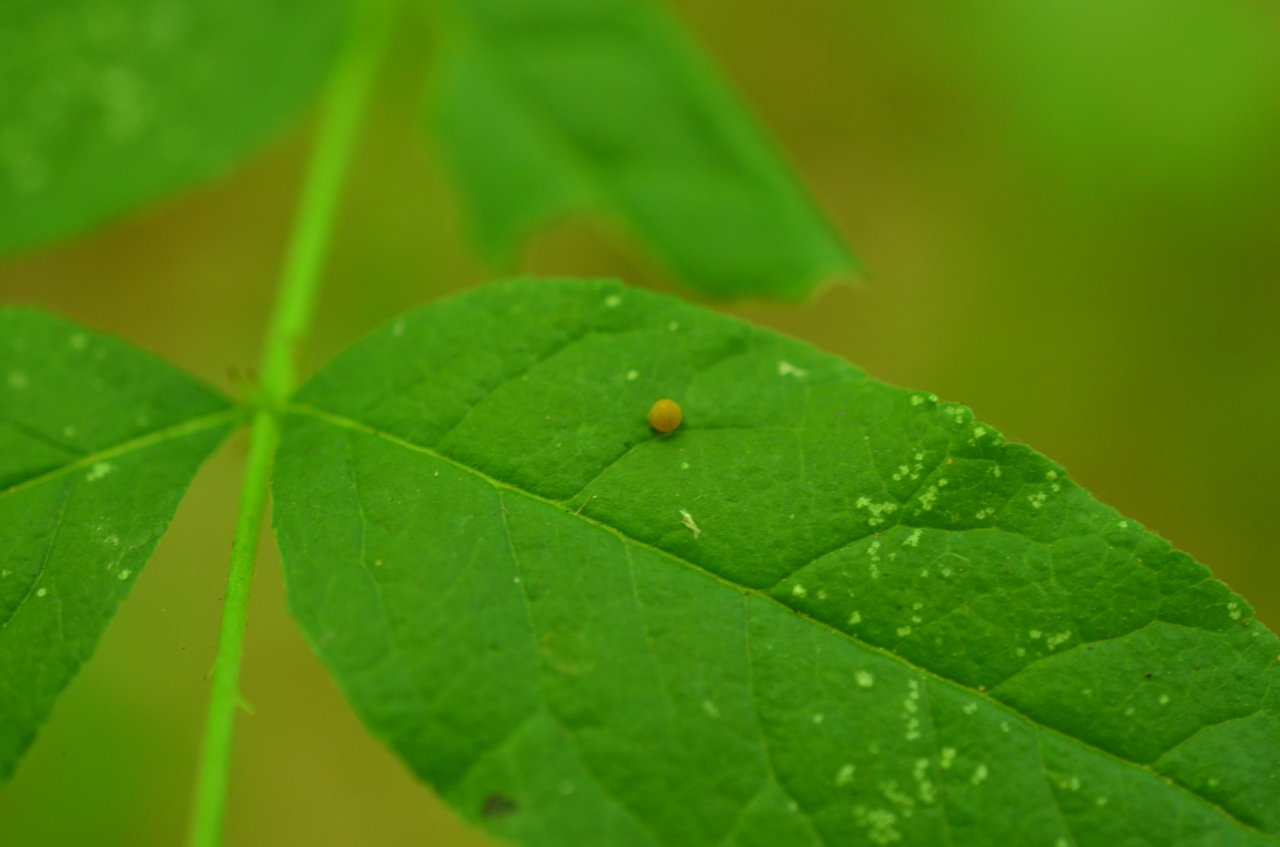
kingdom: Animalia
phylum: Arthropoda
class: Insecta
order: Lepidoptera
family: Papilionidae
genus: Papilio
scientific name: Papilio cresphontes
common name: Eastern Giant Swallowtail
